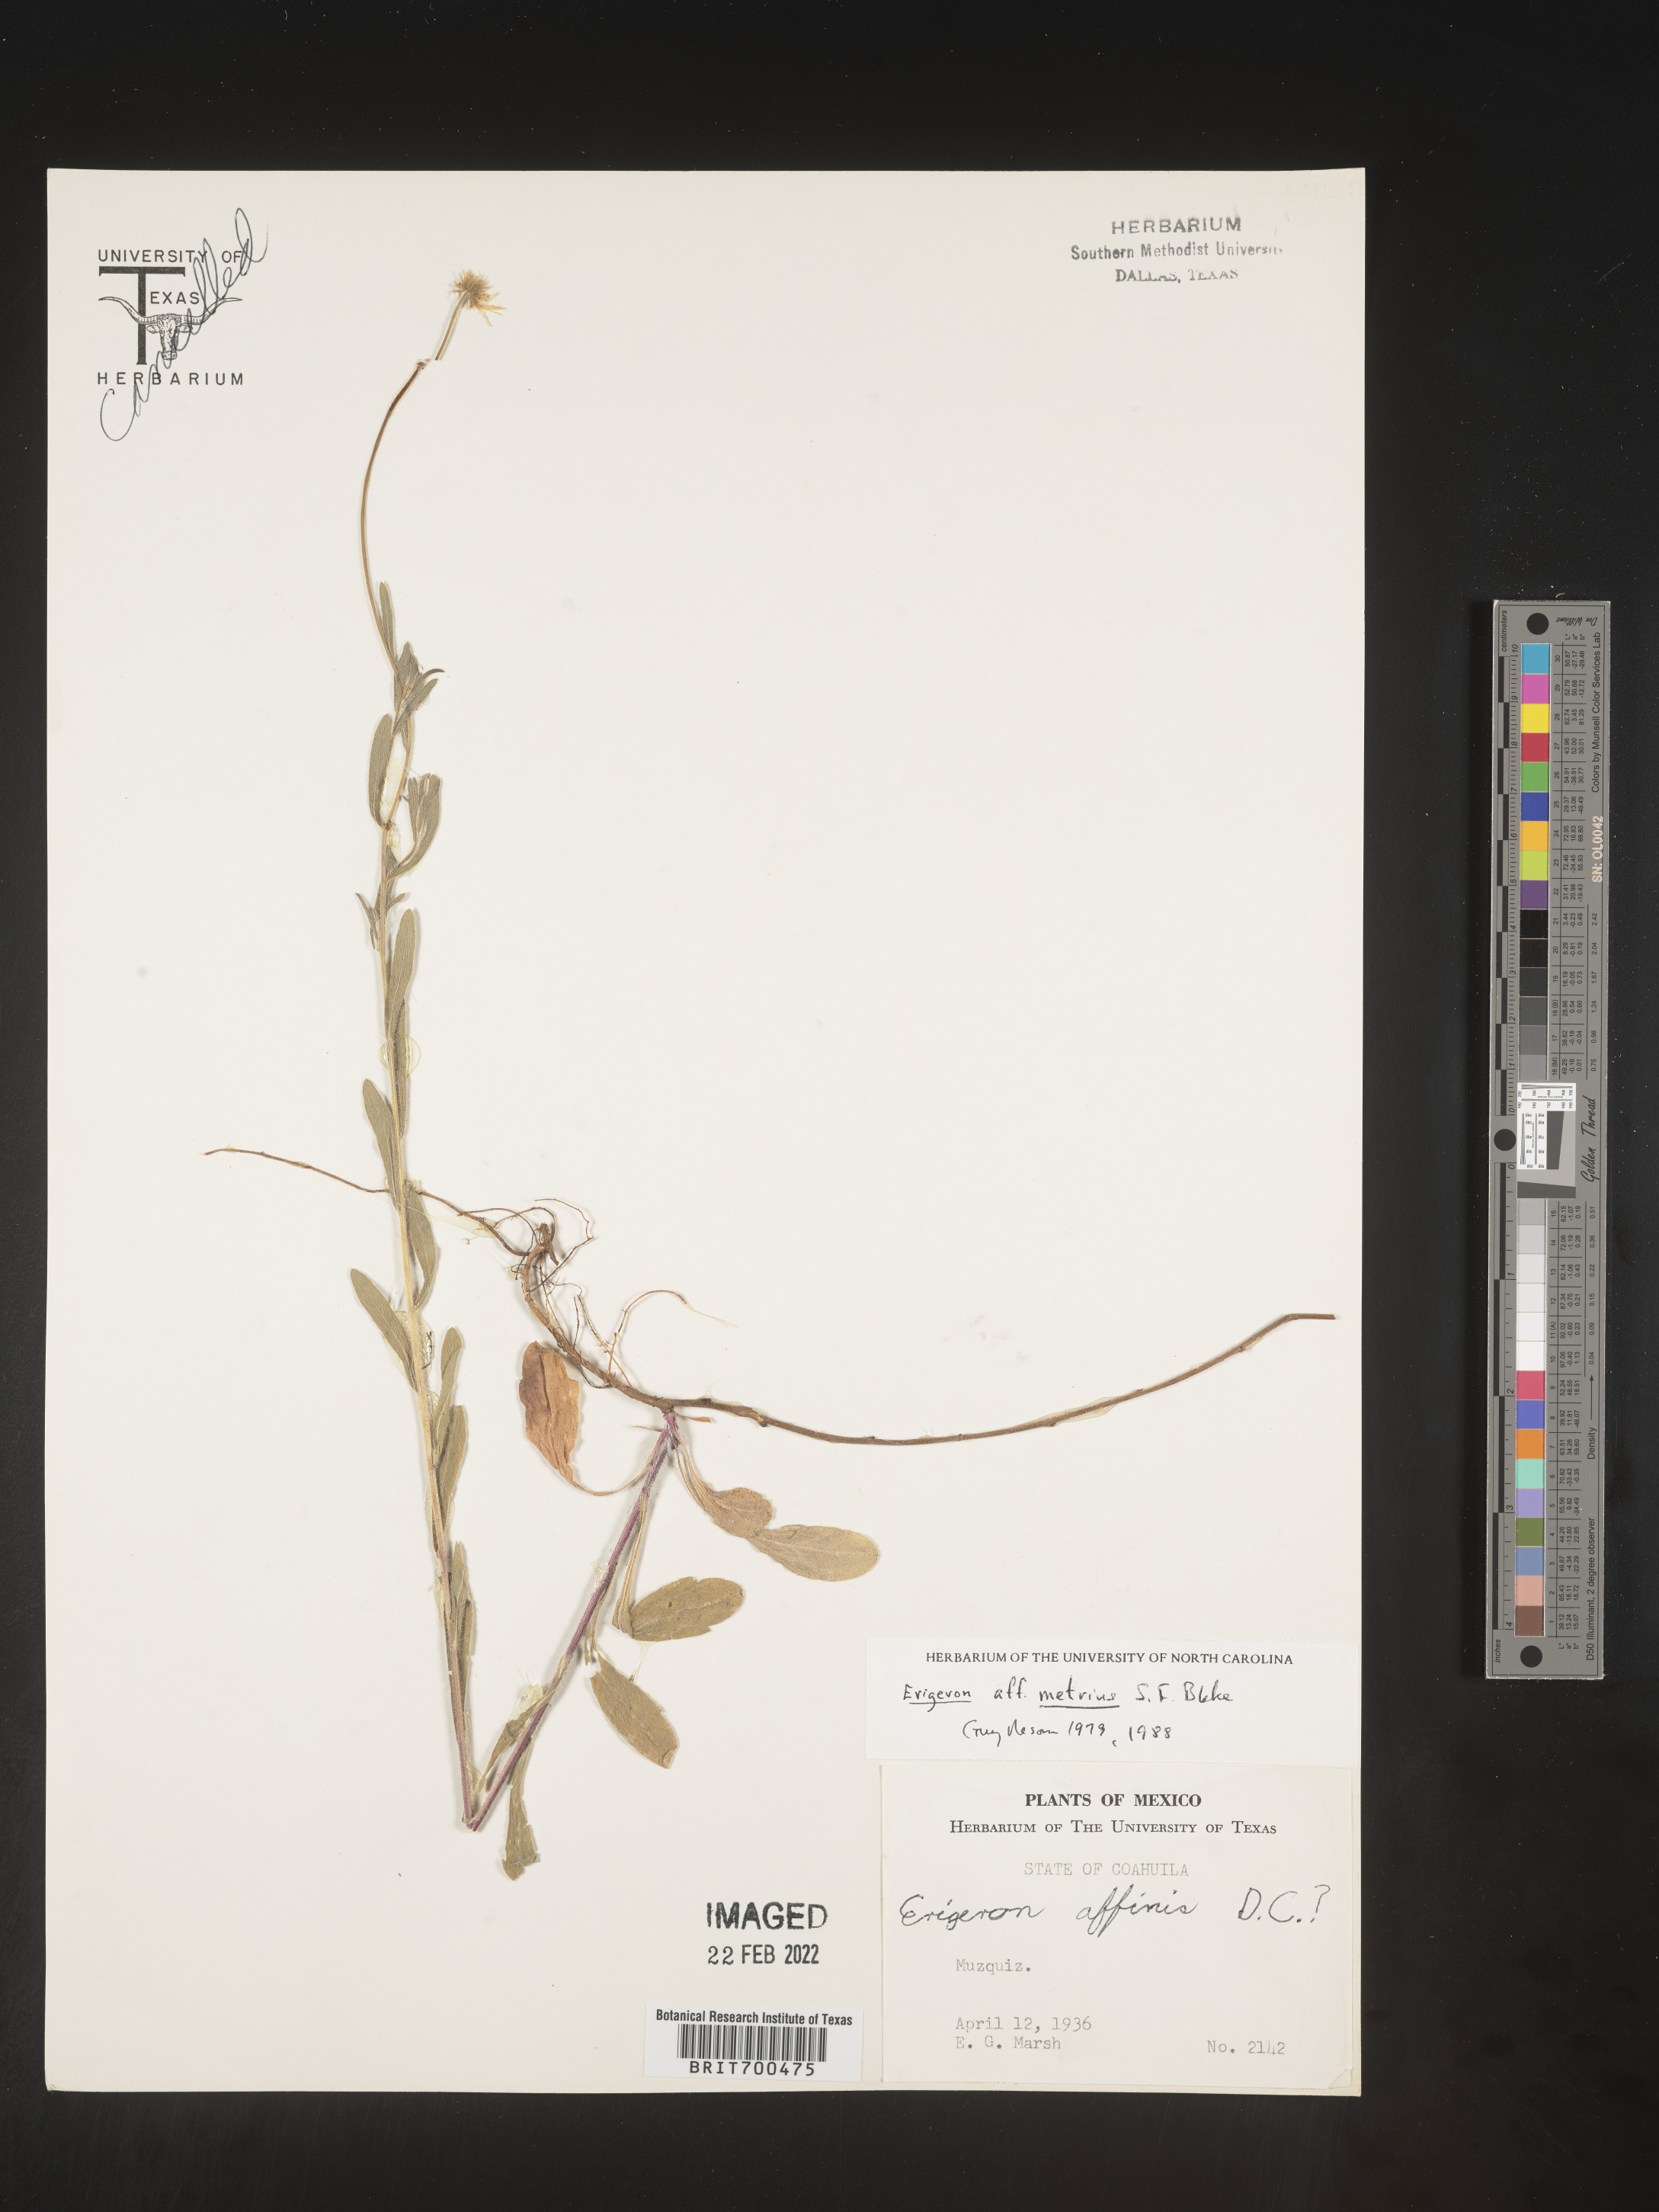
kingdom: Plantae
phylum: Tracheophyta
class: Magnoliopsida
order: Asterales
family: Asteraceae
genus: Erigeron
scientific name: Erigeron
